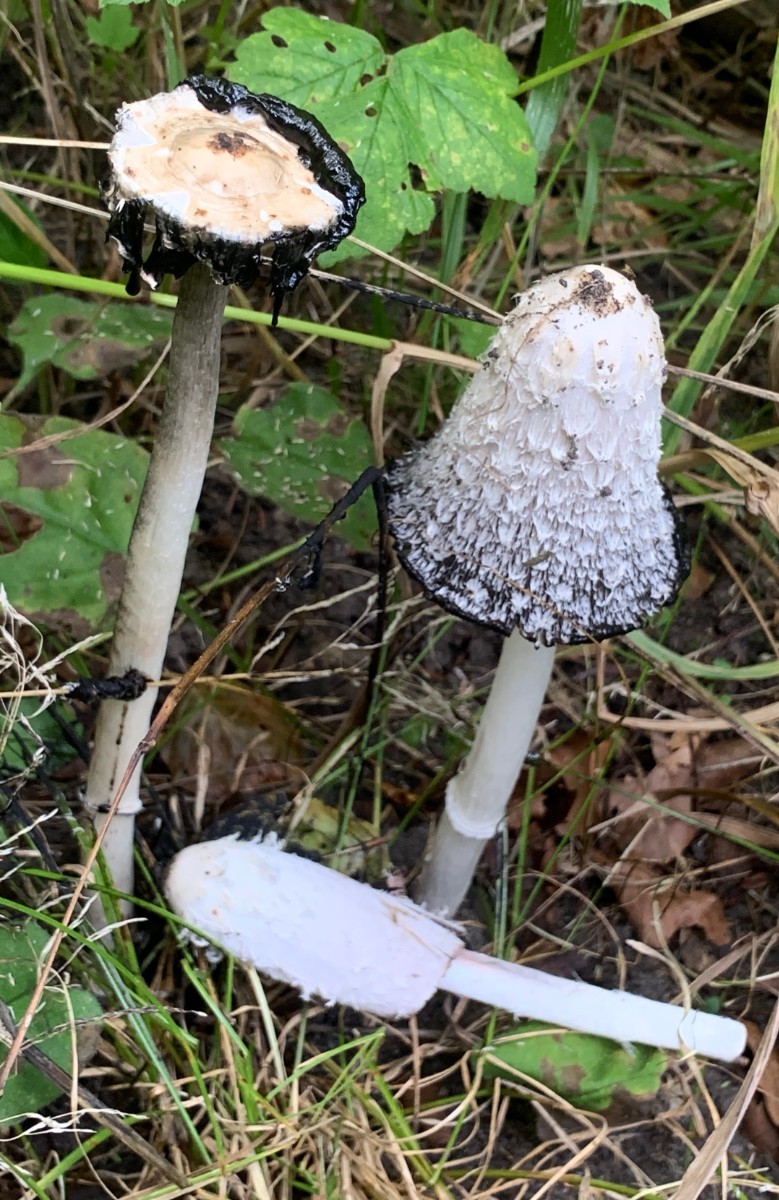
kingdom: Fungi
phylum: Basidiomycota
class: Agaricomycetes
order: Agaricales
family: Agaricaceae
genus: Coprinus
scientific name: Coprinus comatus
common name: stor parykhat
